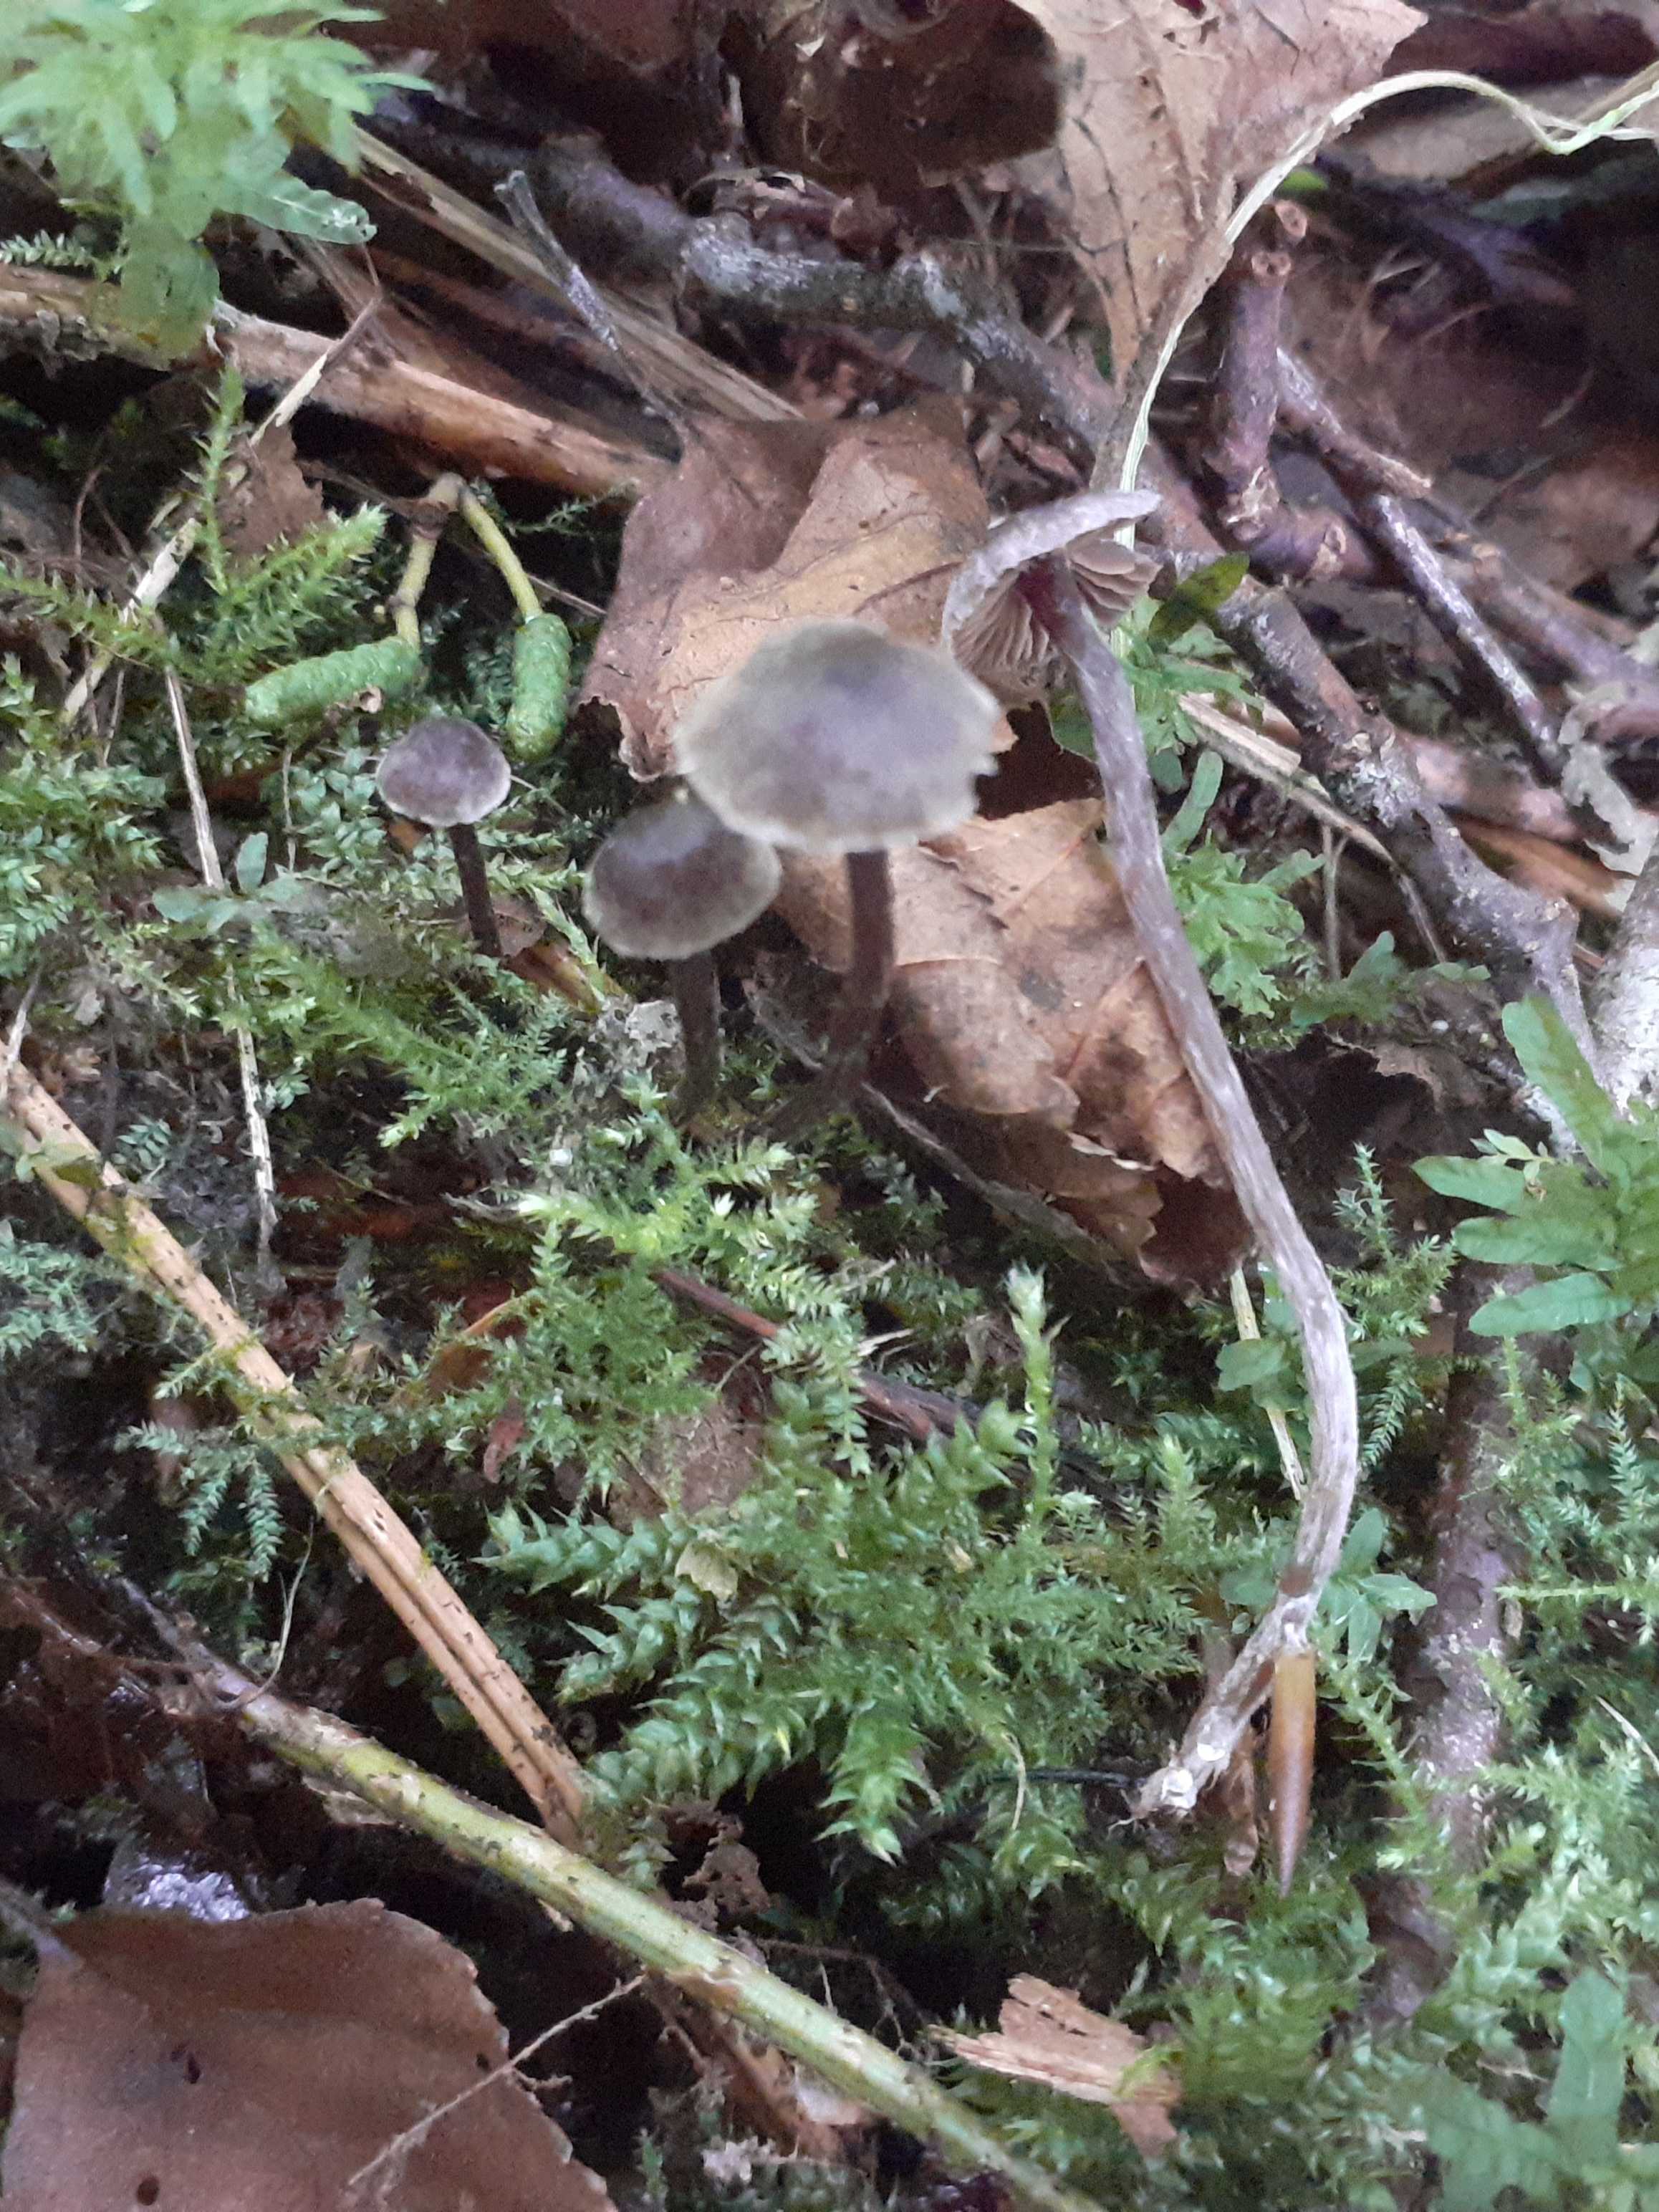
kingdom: Fungi
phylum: Basidiomycota
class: Agaricomycetes
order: Agaricales
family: Cortinariaceae
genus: Cortinarius
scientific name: Cortinarius americanus
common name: natsort slørhat
